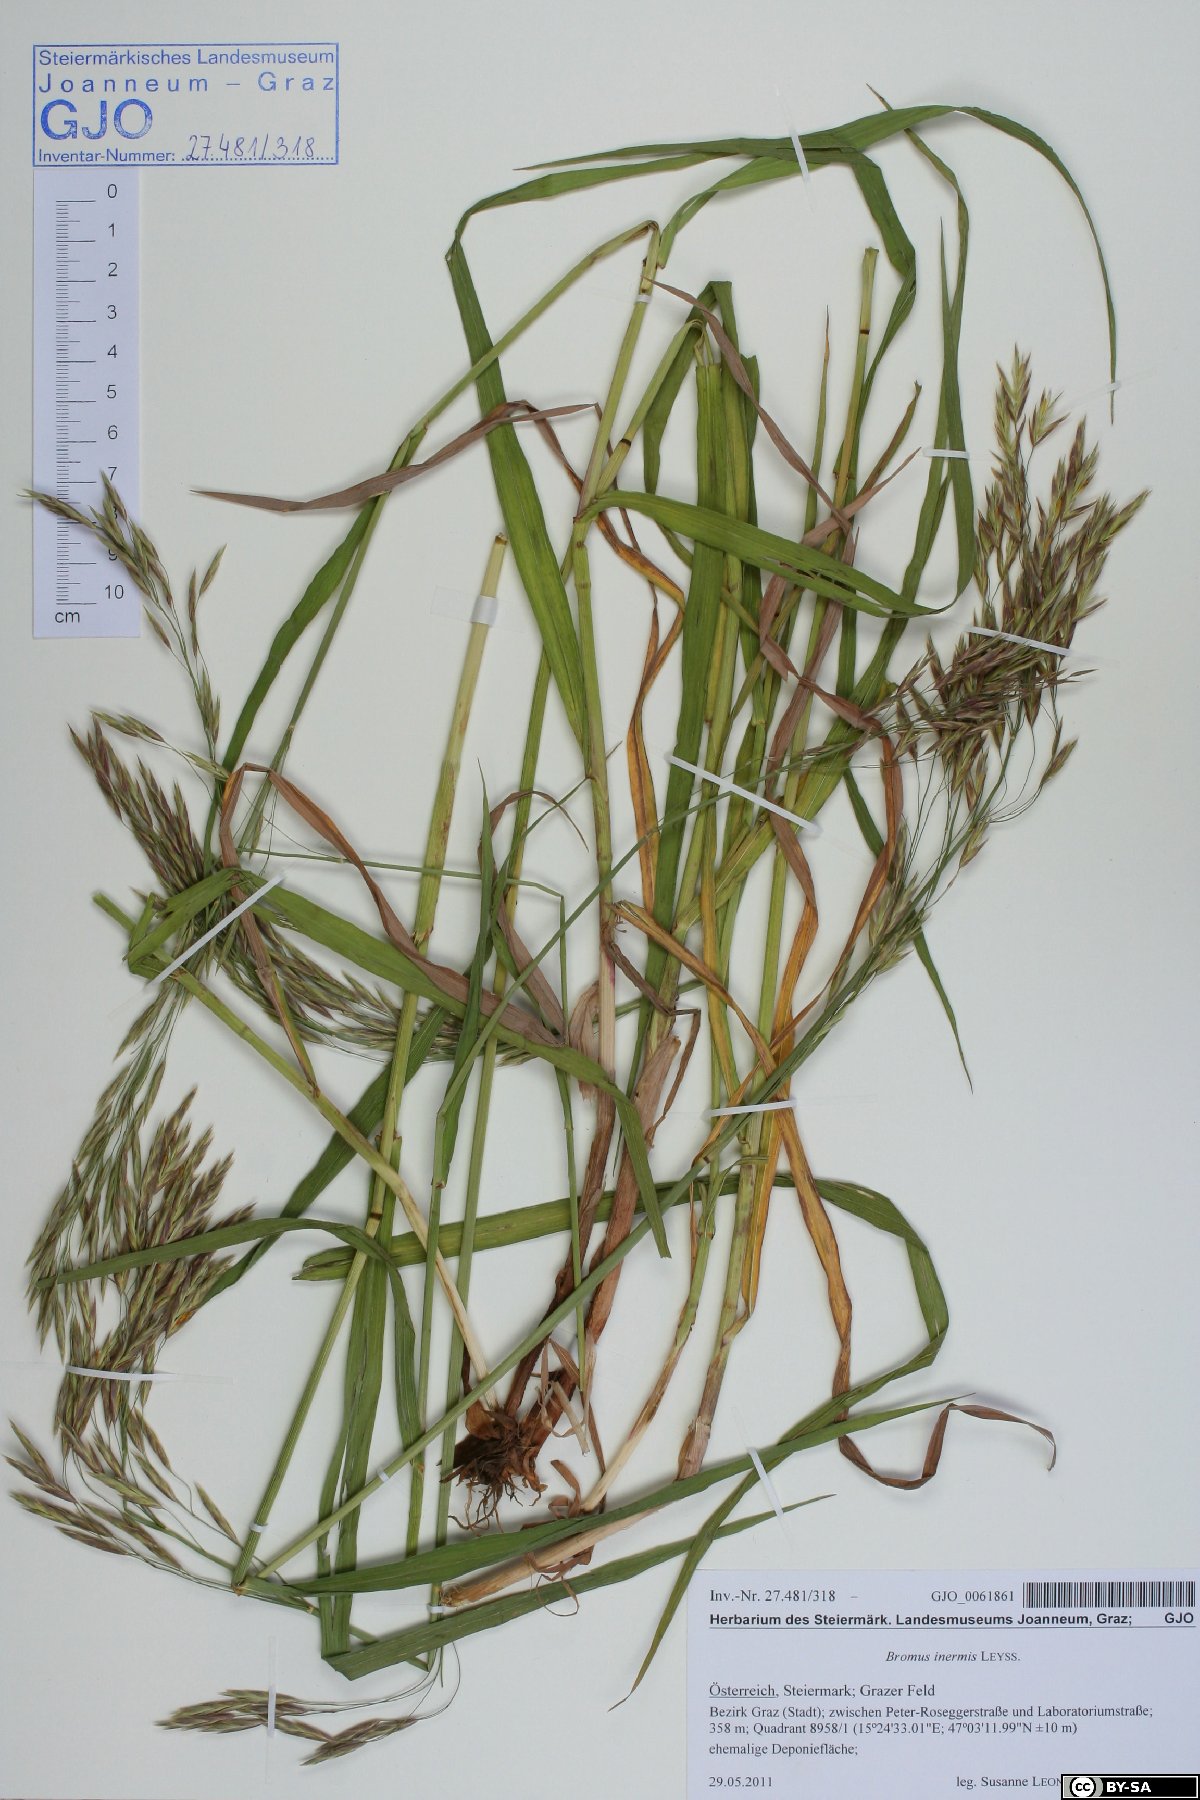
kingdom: Plantae
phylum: Tracheophyta
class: Liliopsida
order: Poales
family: Poaceae
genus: Bromus
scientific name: Bromus inermis
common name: Smooth brome
